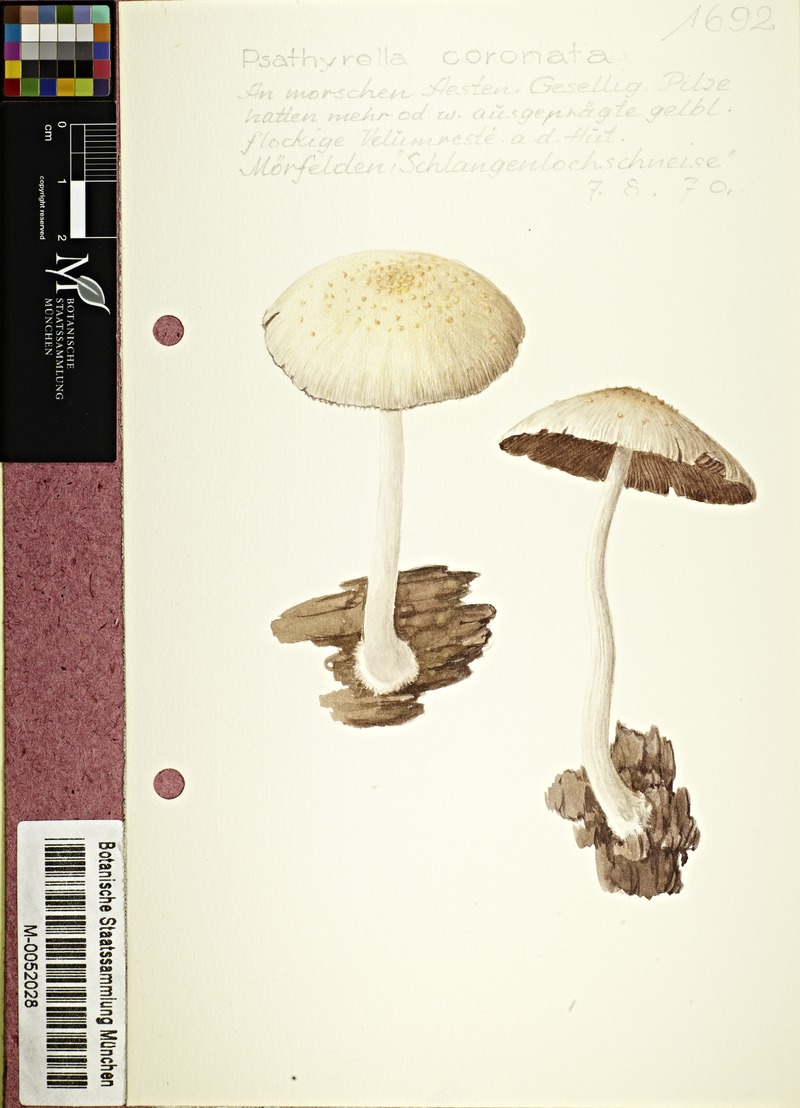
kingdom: Fungi
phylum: Basidiomycota
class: Agaricomycetes
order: Agaricales
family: Psathyrellaceae
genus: Psathyrella
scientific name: Psathyrella coronata
